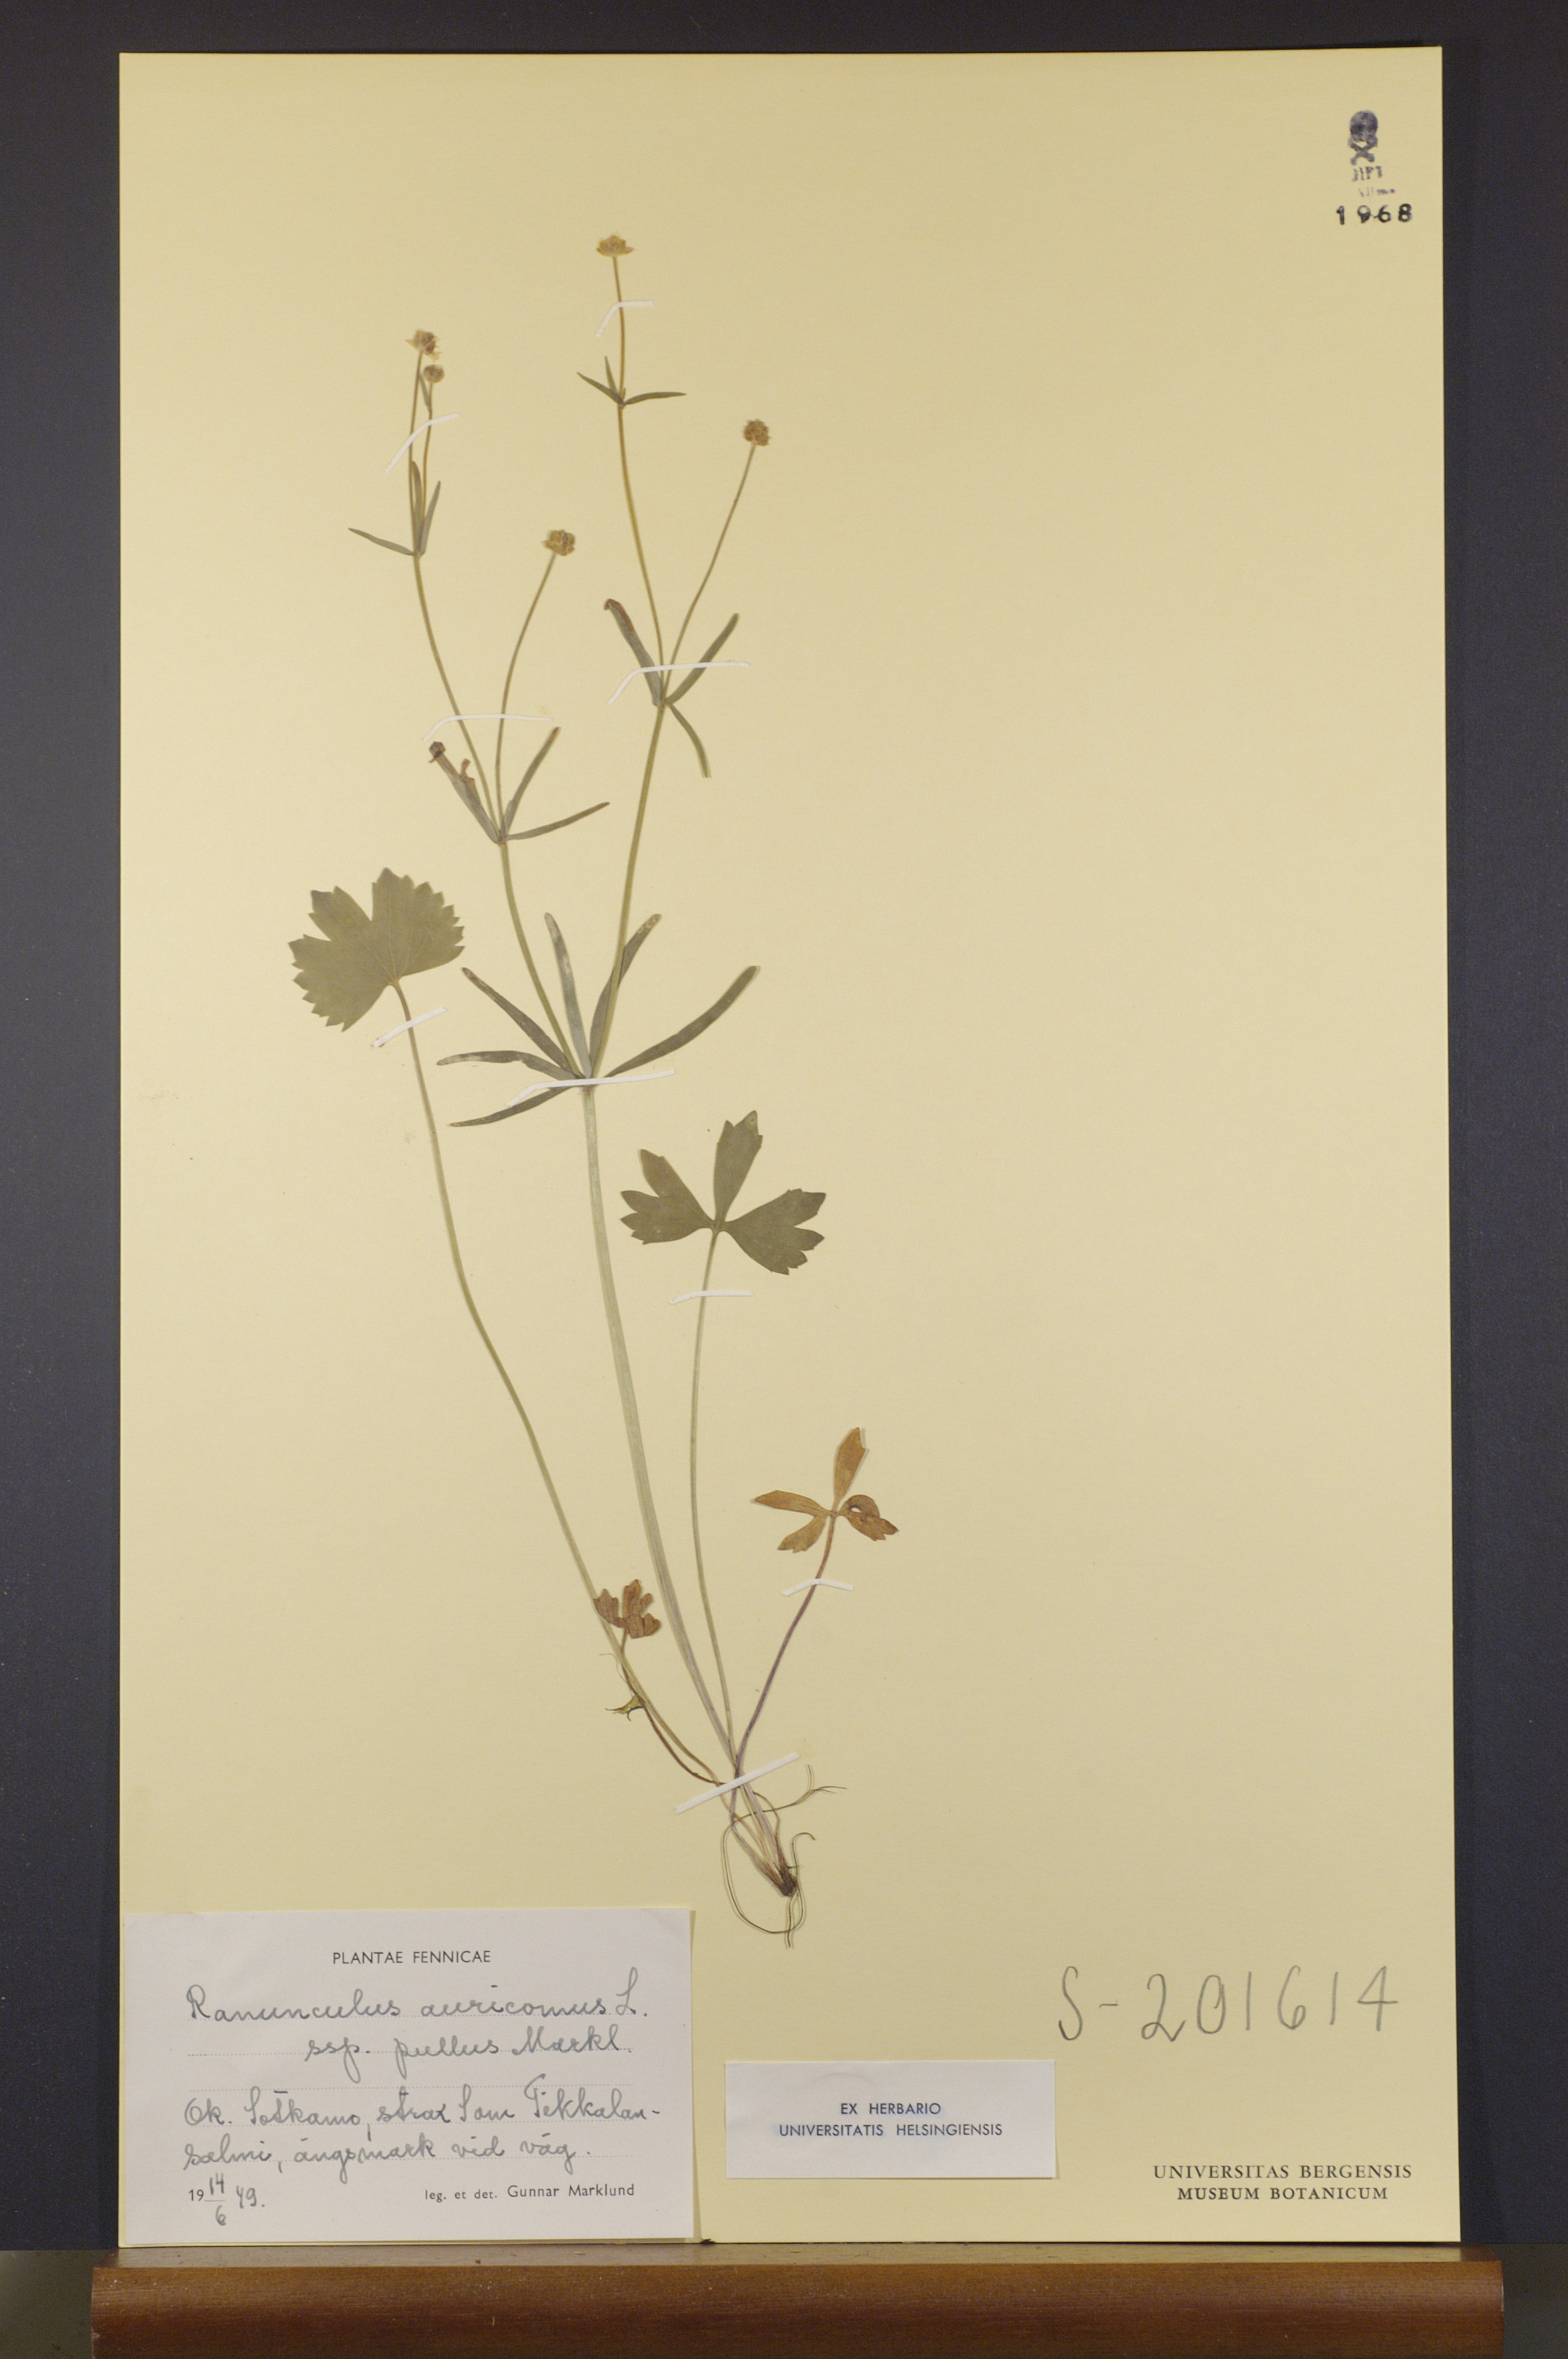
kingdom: Plantae
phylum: Tracheophyta
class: Magnoliopsida
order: Ranunculales
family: Ranunculaceae
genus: Ranunculus
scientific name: Ranunculus pullus
